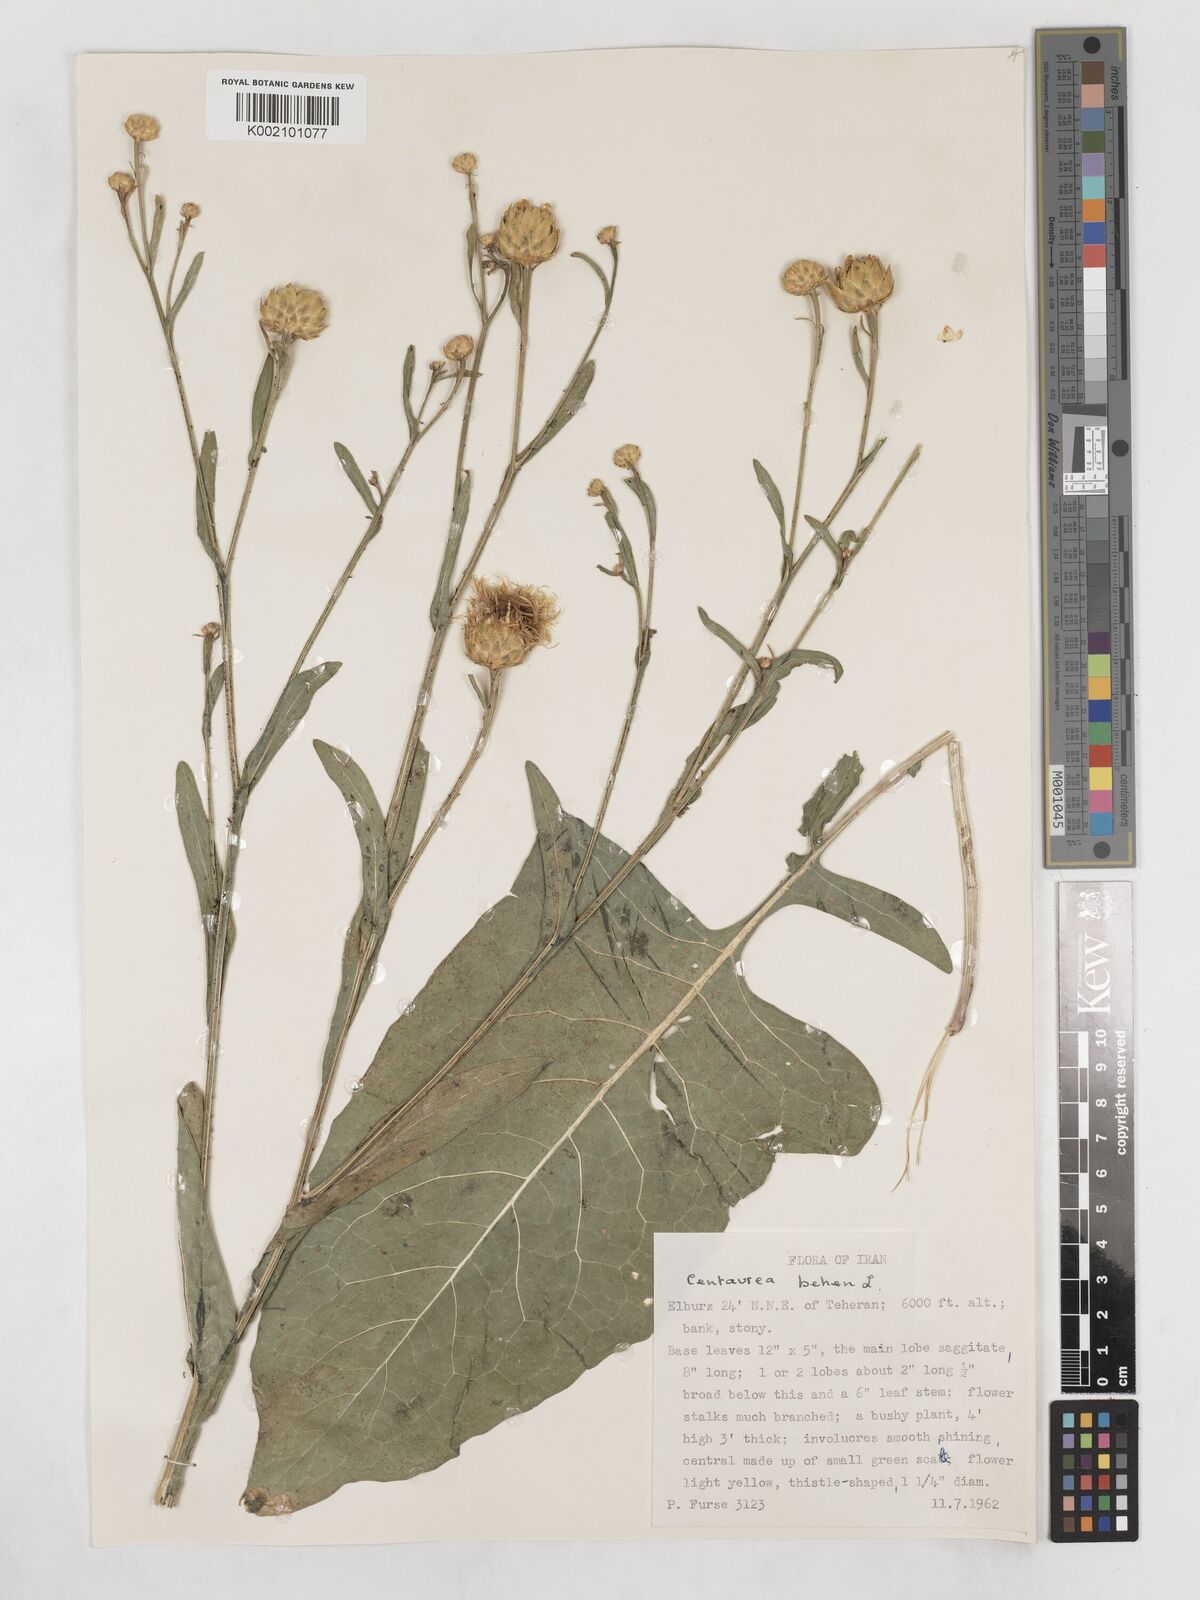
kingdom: Plantae
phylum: Tracheophyta
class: Magnoliopsida
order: Asterales
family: Asteraceae
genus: Centaurea
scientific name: Centaurea behen
